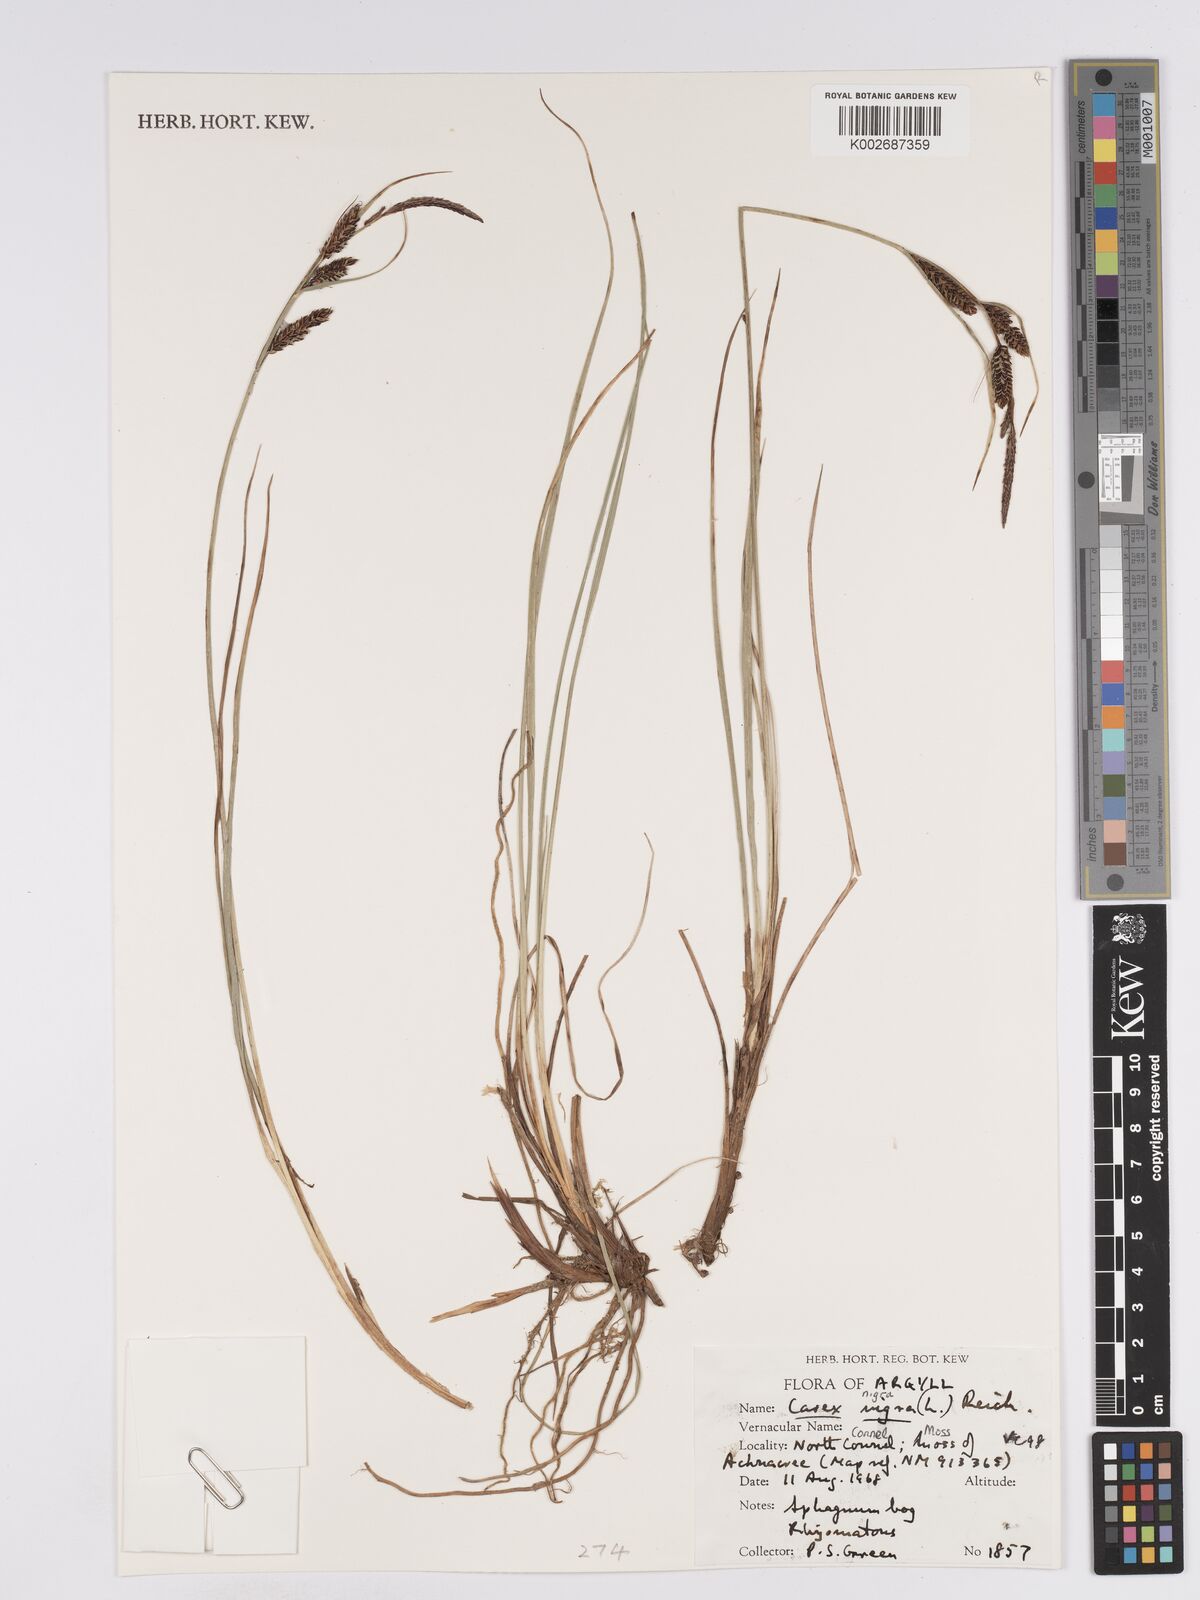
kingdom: Plantae
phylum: Tracheophyta
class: Liliopsida
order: Poales
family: Cyperaceae
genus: Carex
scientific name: Carex nigra
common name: Common sedge
